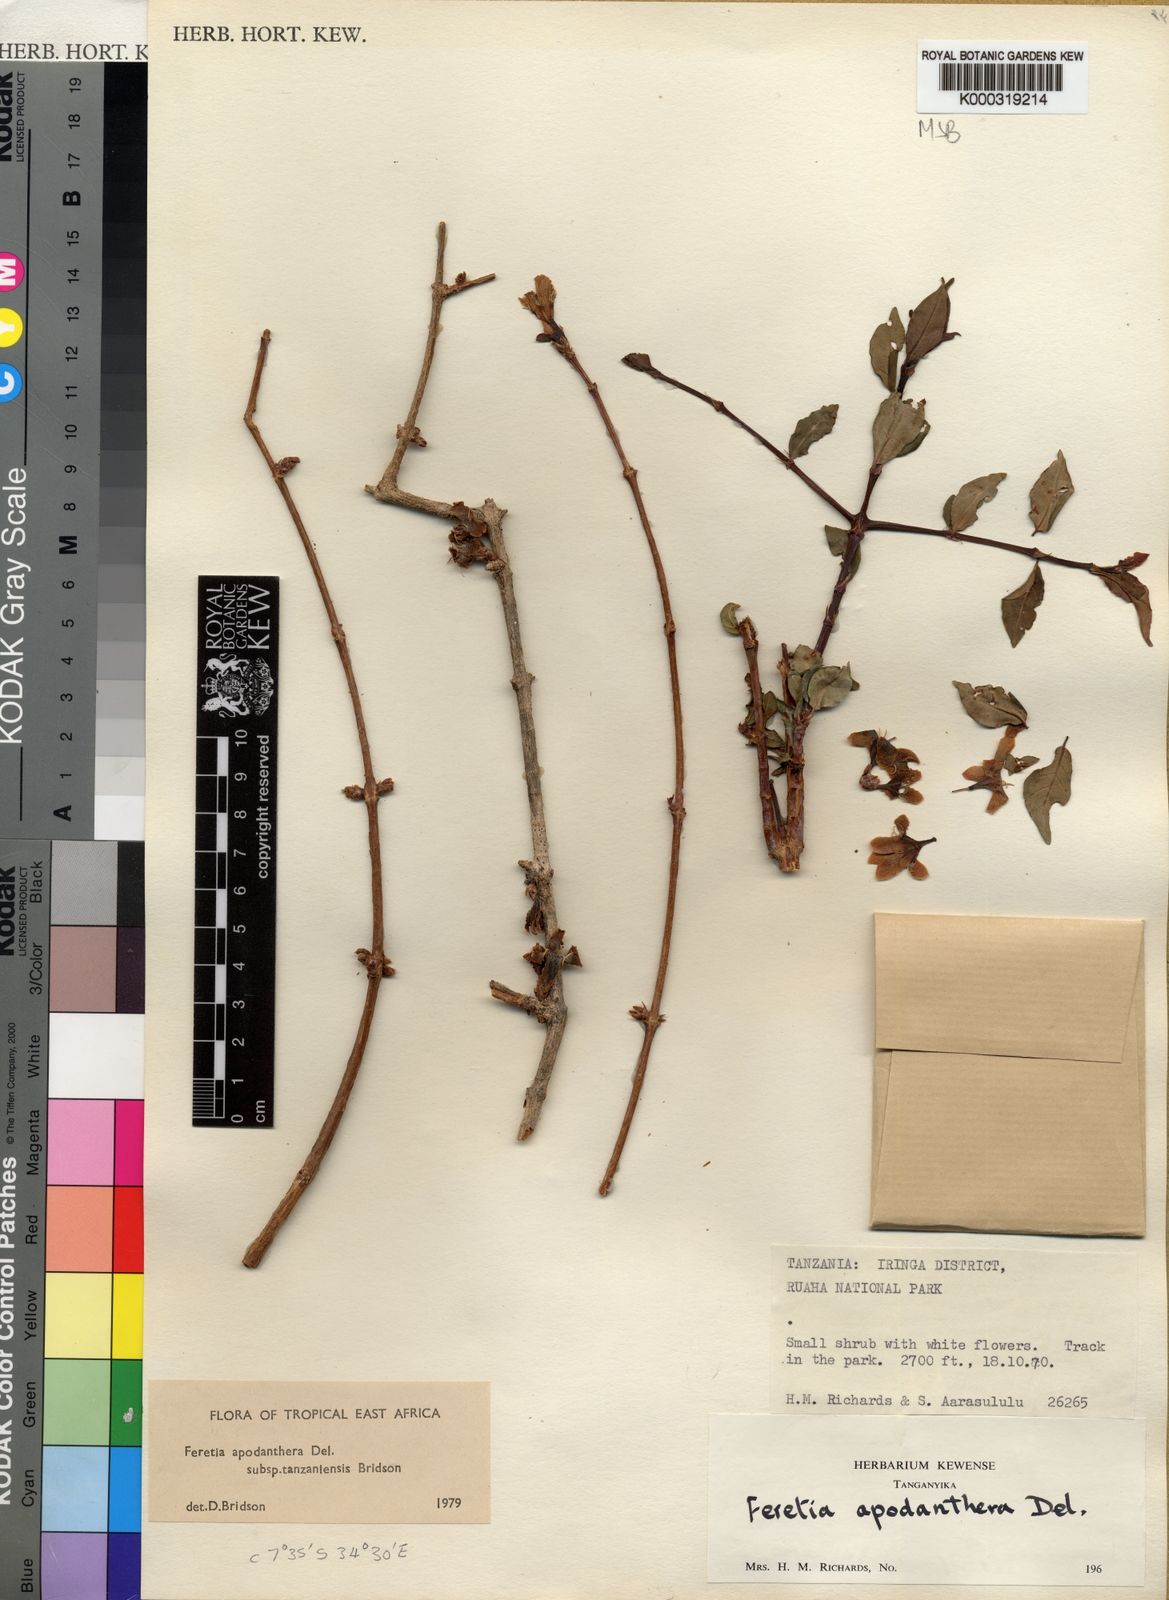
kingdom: Plantae
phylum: Tracheophyta
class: Magnoliopsida
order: Gentianales
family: Rubiaceae
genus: Feretia
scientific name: Feretia apodanthera
